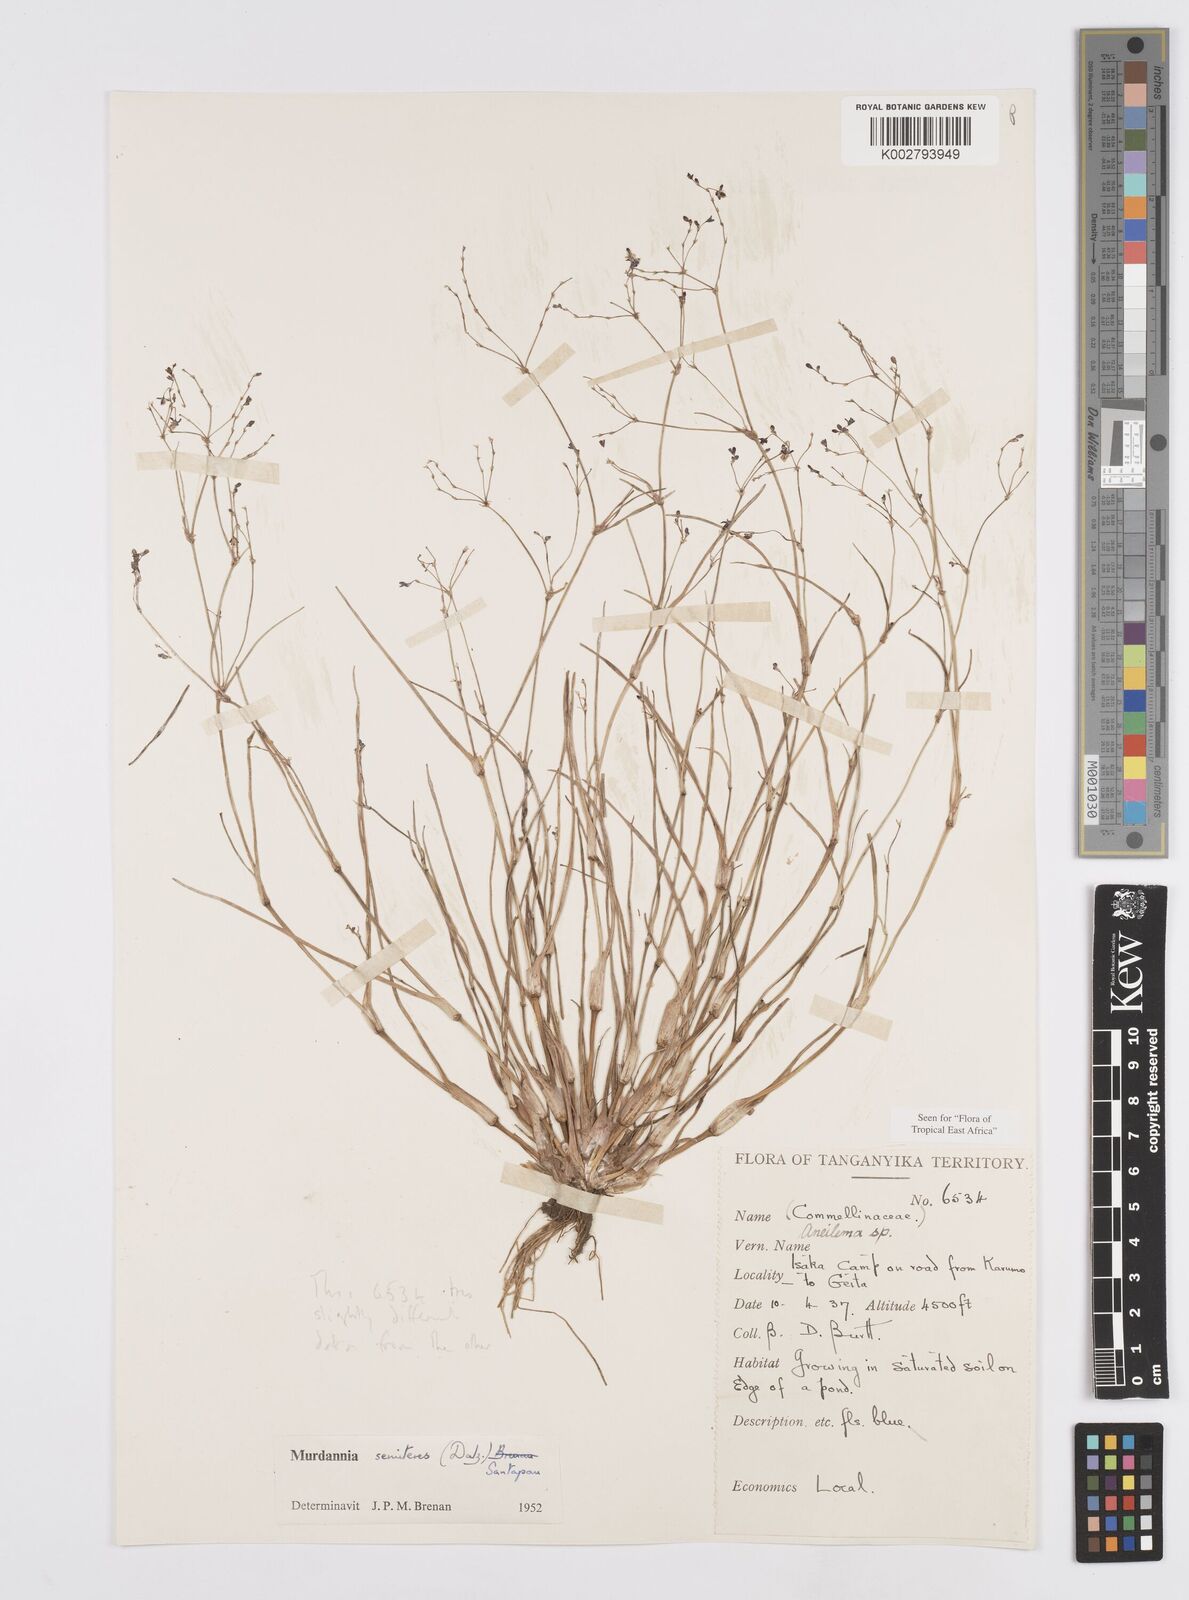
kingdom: Plantae
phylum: Tracheophyta
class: Liliopsida
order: Commelinales
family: Commelinaceae
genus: Murdannia
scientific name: Murdannia semiteres
